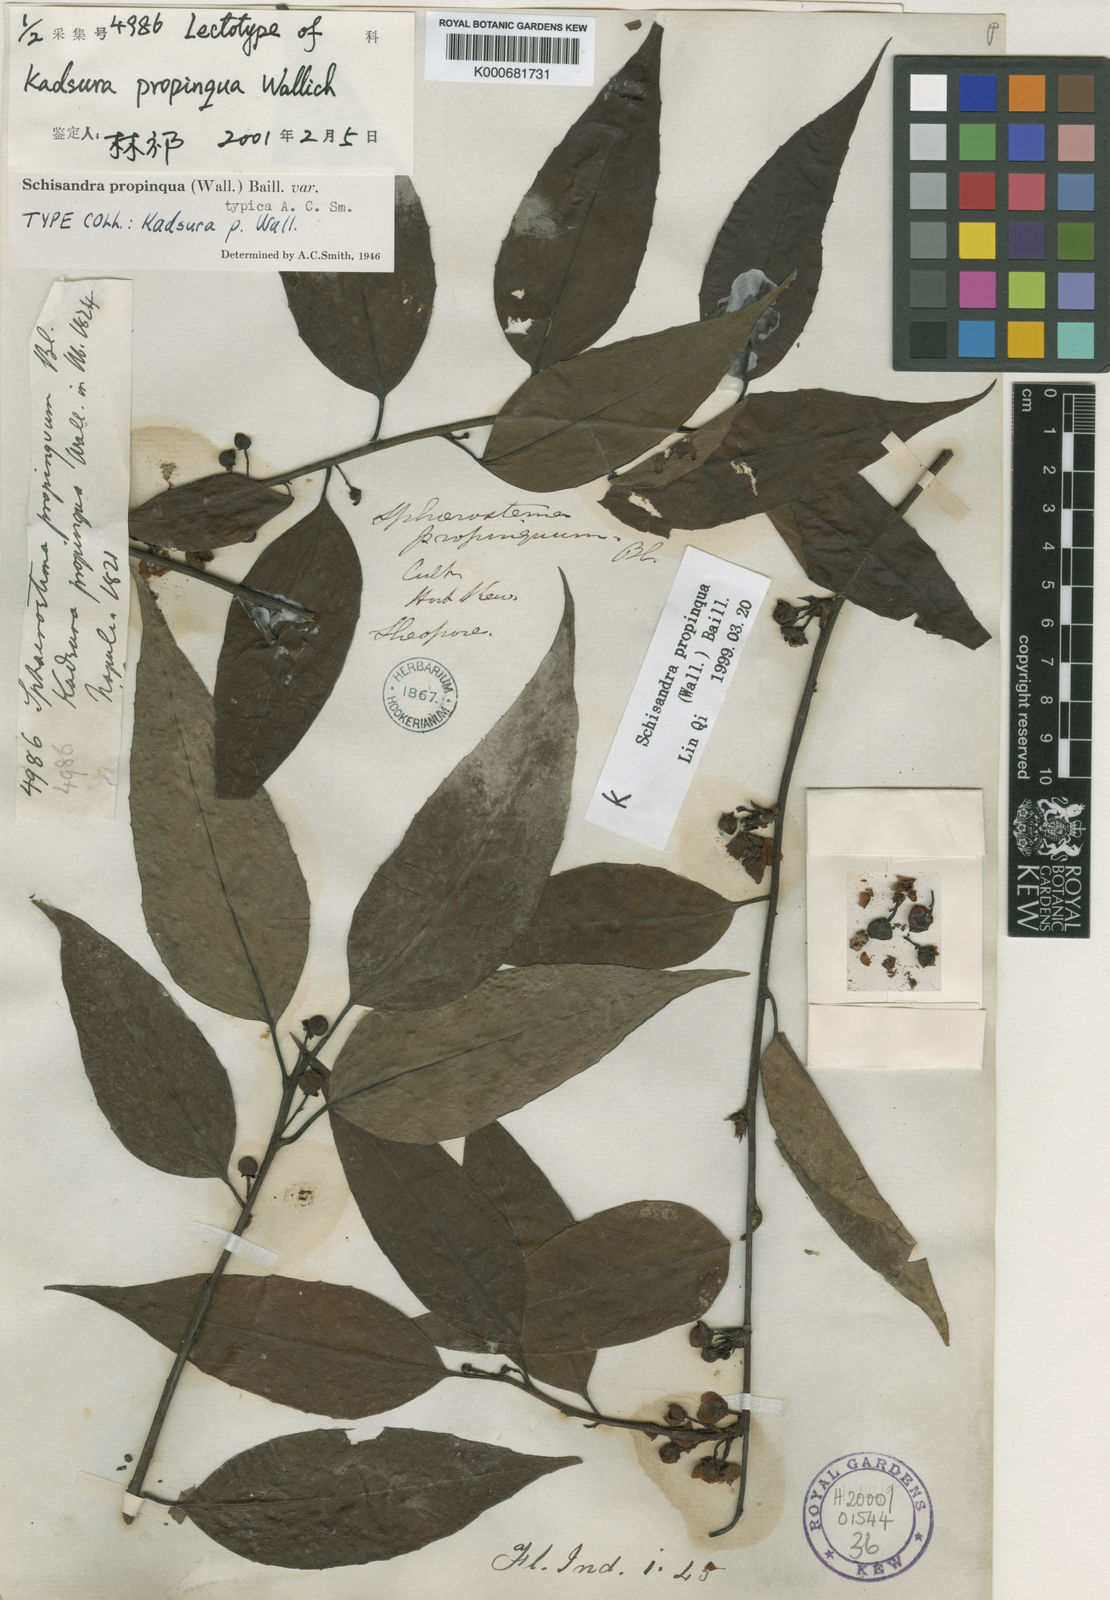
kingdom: Plantae
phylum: Tracheophyta
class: Magnoliopsida
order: Austrobaileyales
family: Schisandraceae
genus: Schisandra
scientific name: Schisandra propinqua
